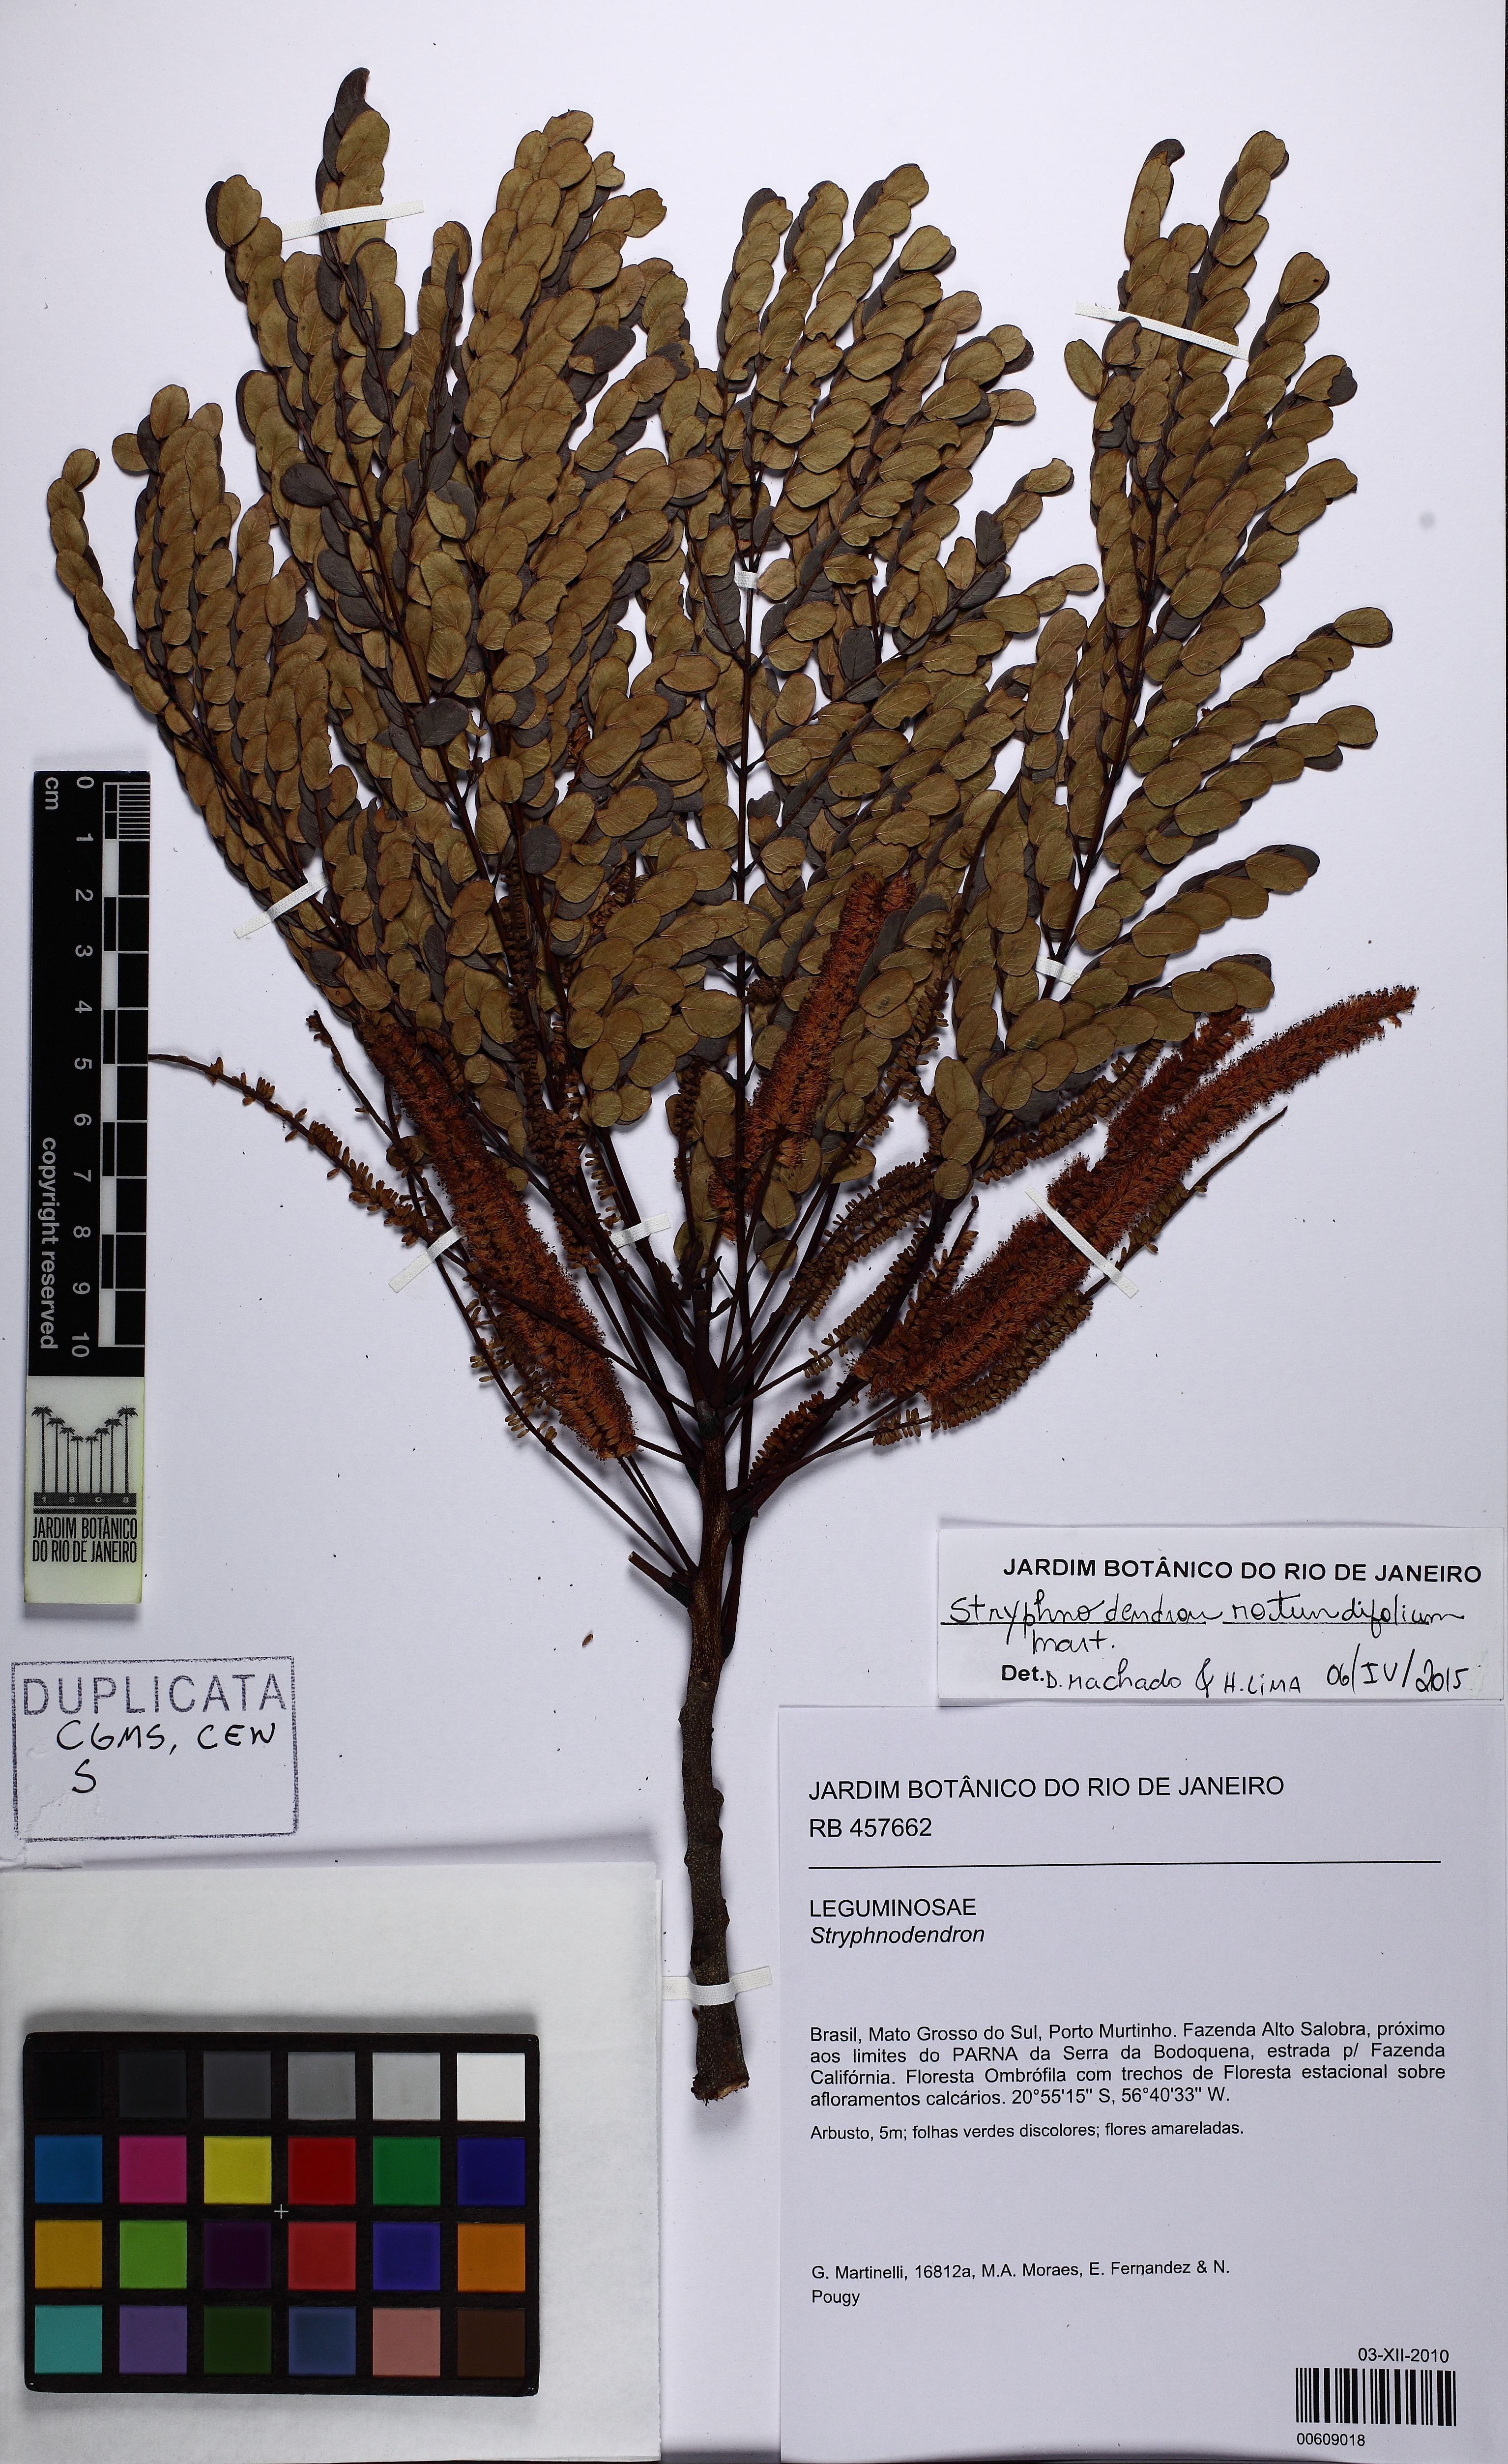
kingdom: Plantae
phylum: Tracheophyta
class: Magnoliopsida
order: Fabales
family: Fabaceae
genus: Stryphnodendron
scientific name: Stryphnodendron rotundifolium
